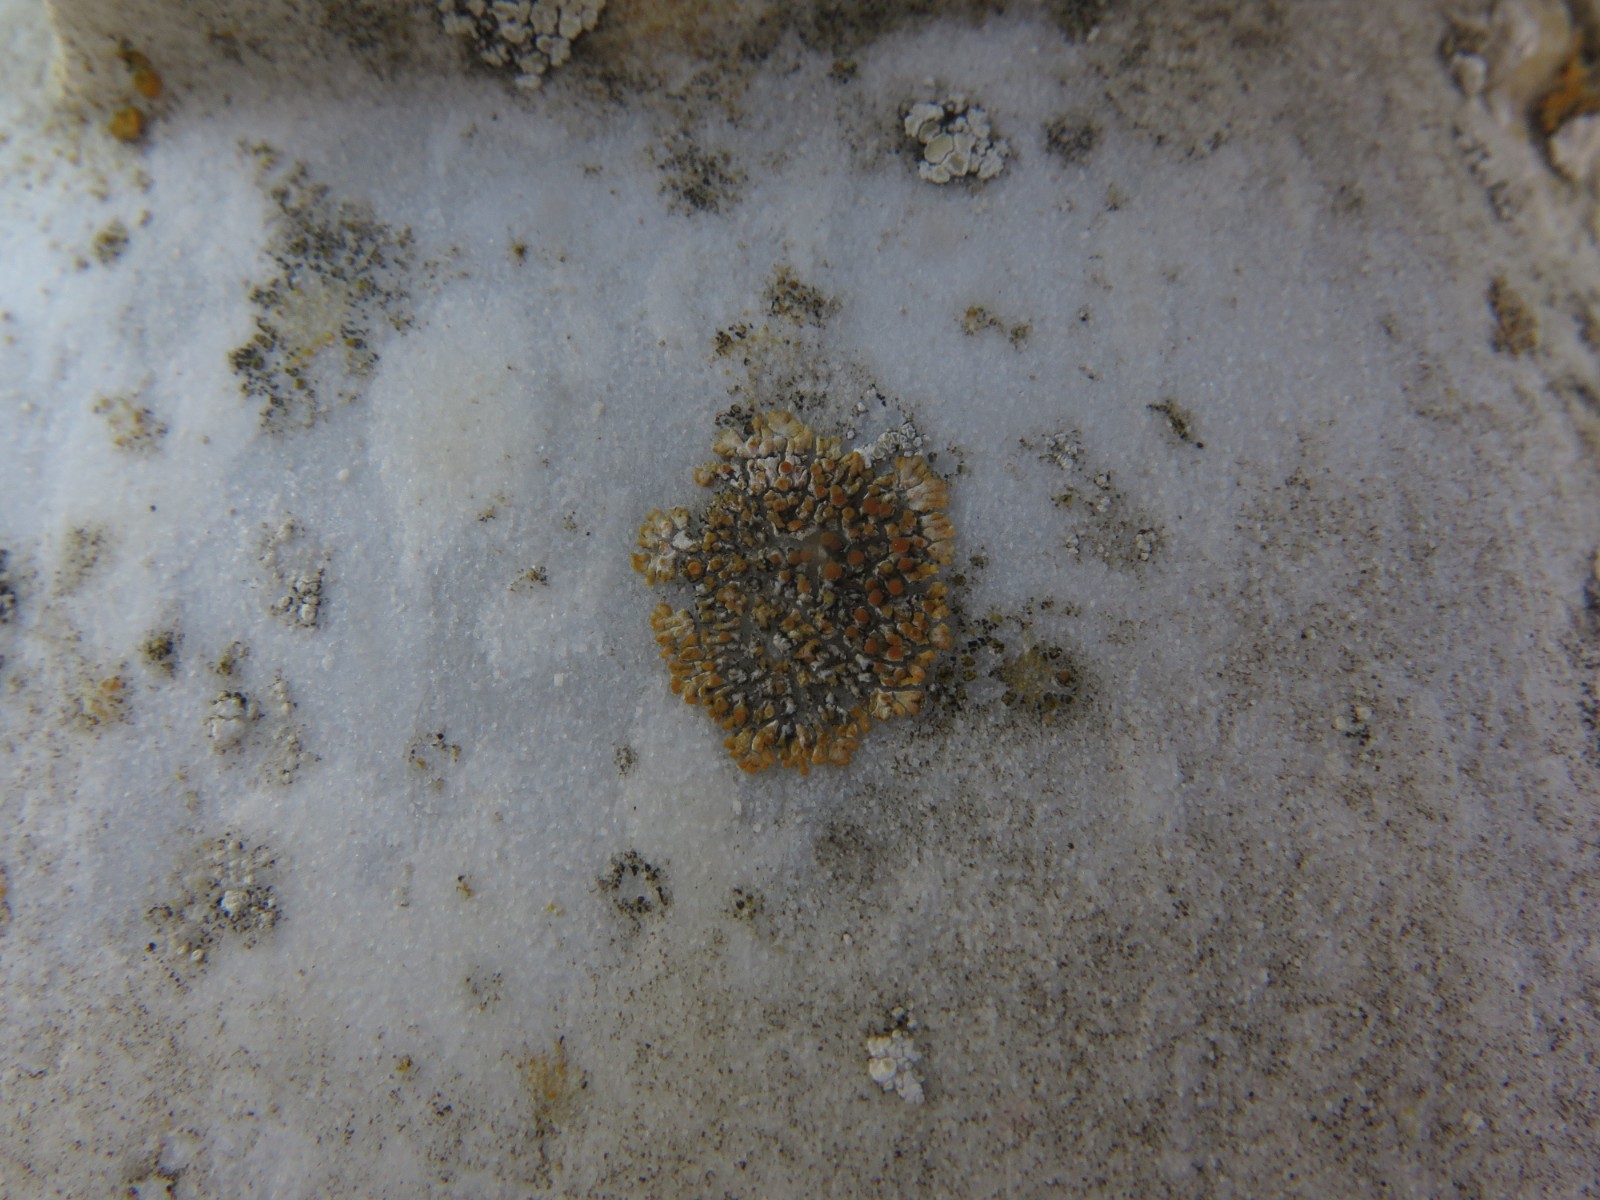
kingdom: Fungi
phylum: Ascomycota
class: Lecanoromycetes
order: Teloschistales
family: Teloschistaceae
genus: Calogaya
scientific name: Calogaya pusilla
